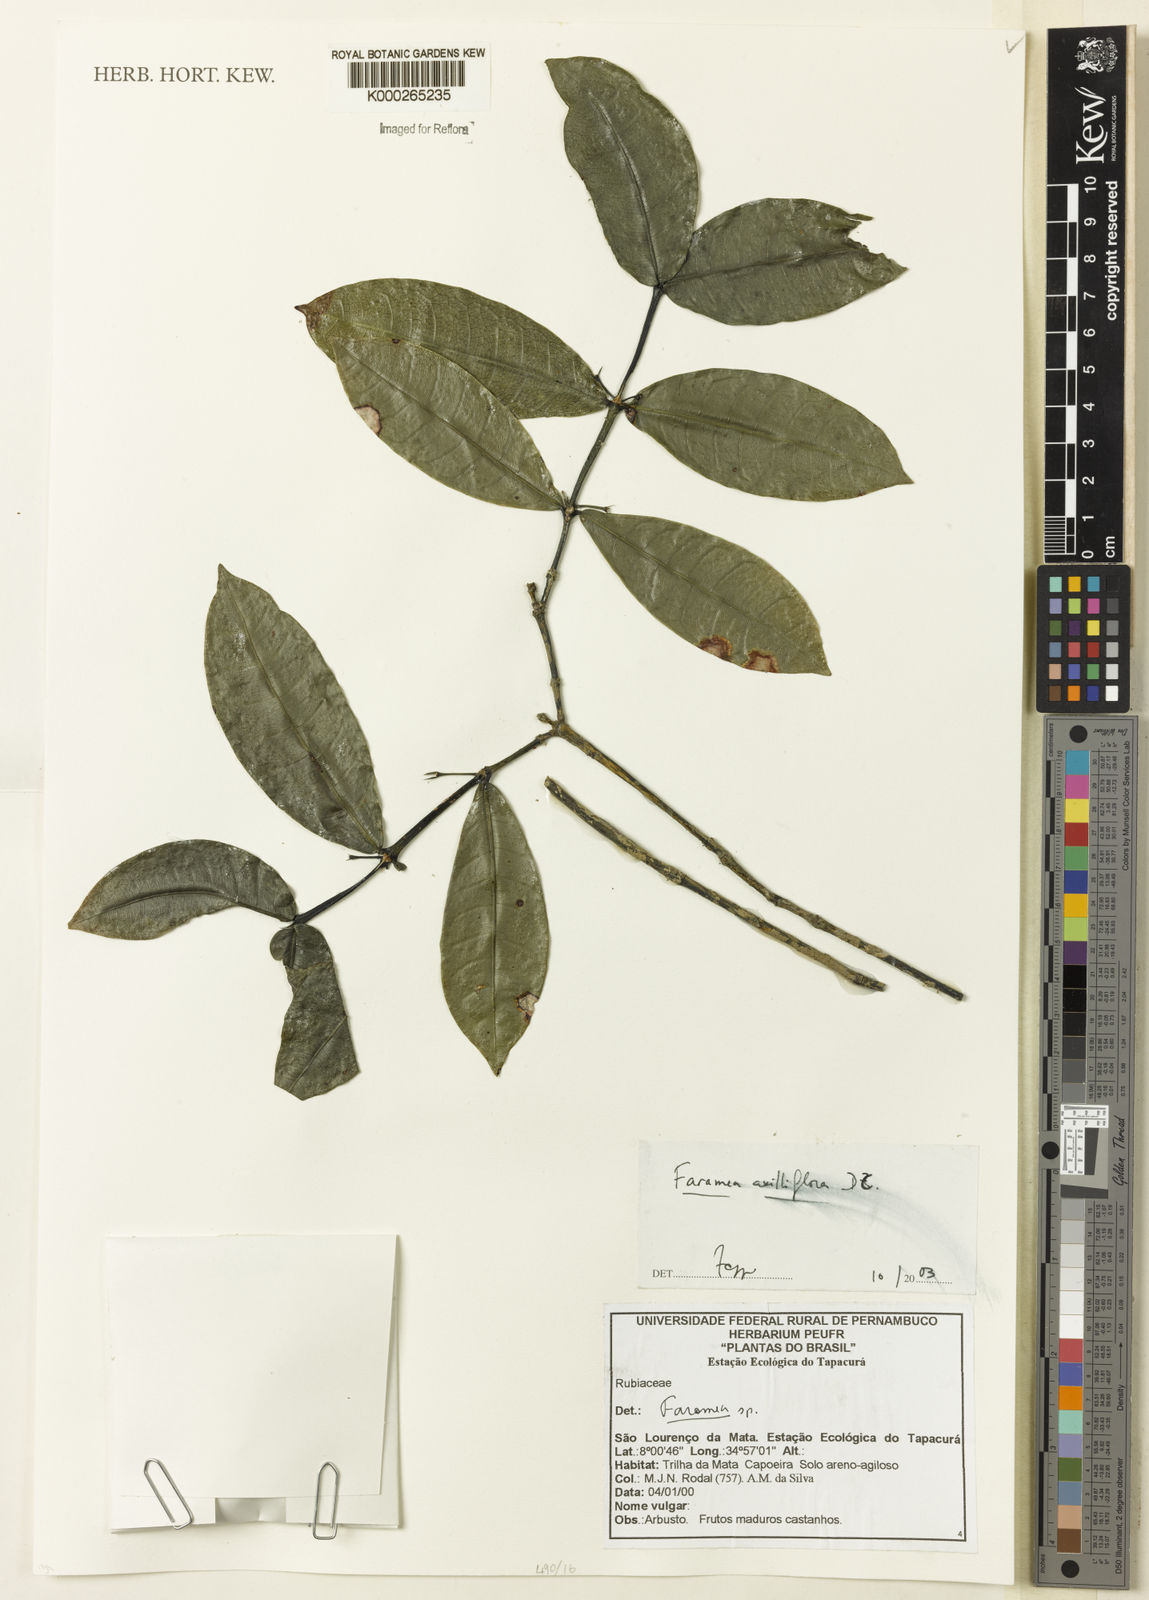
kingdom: Plantae
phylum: Tracheophyta
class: Magnoliopsida
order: Gentianales
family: Rubiaceae
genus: Faramea
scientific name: Faramea axilliflora
